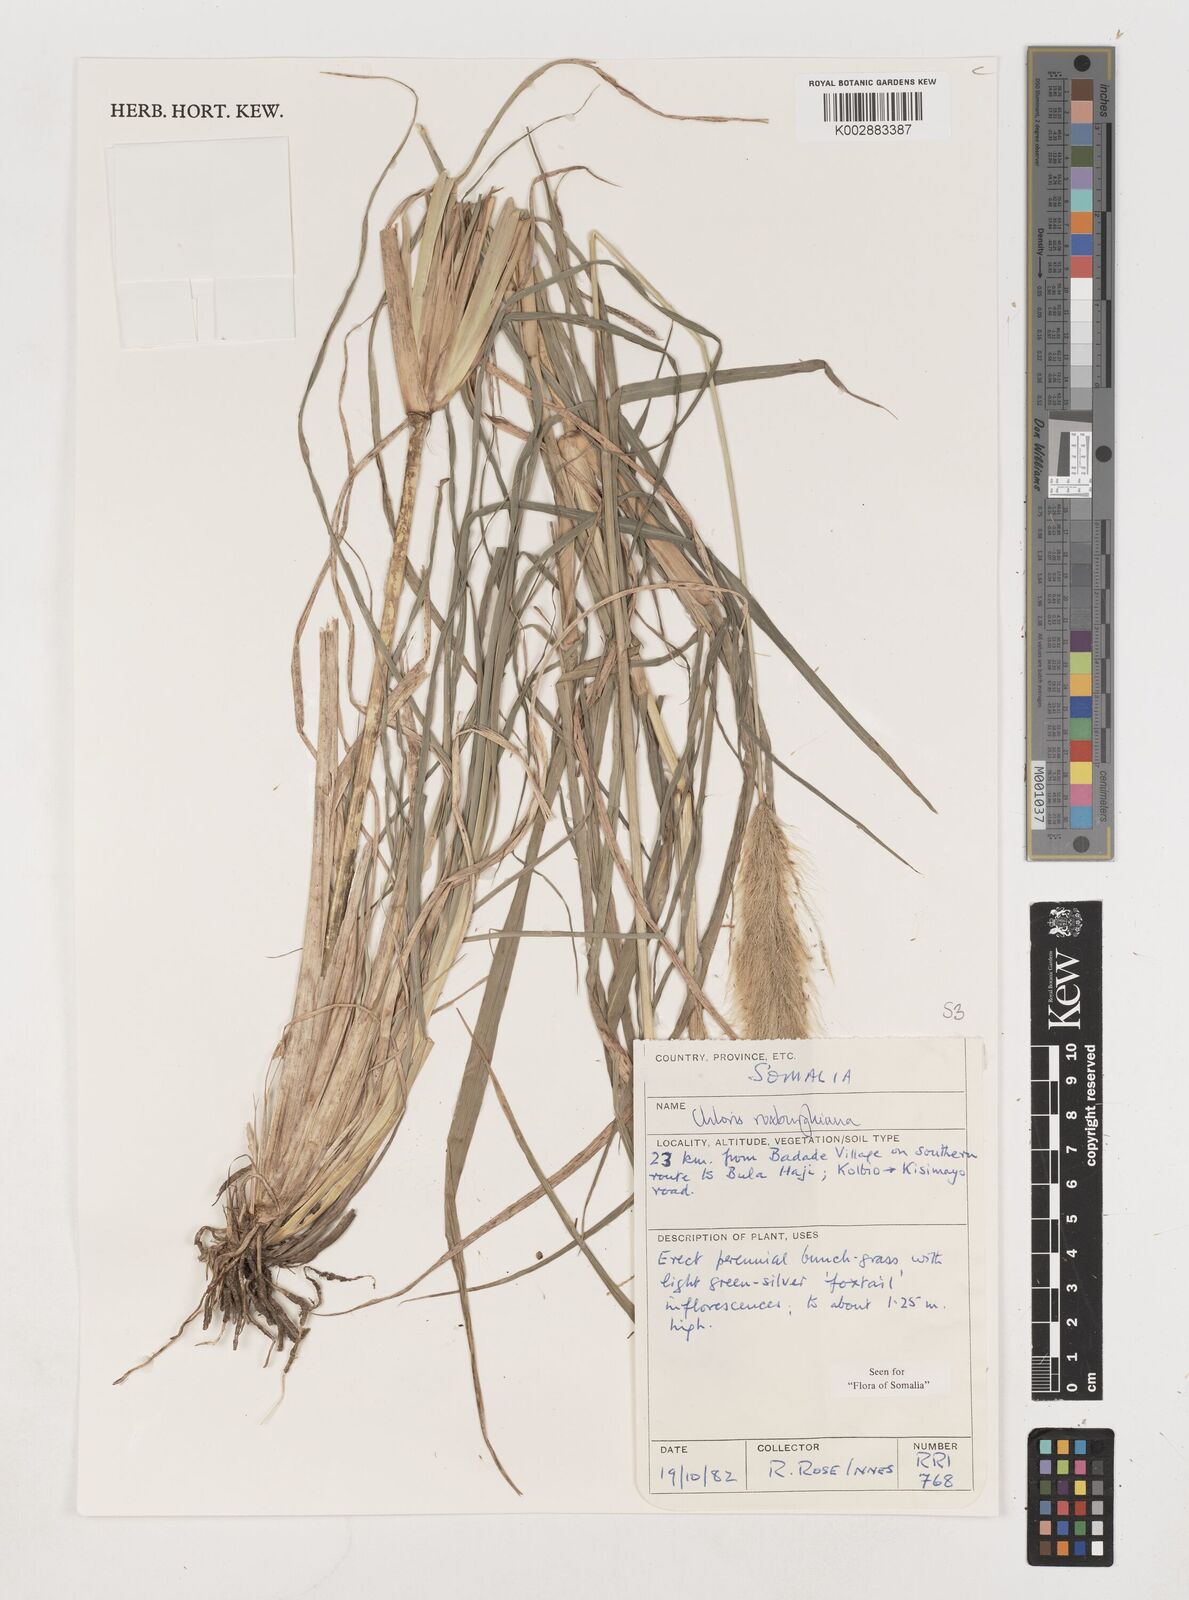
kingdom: Plantae
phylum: Tracheophyta
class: Liliopsida
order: Poales
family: Poaceae
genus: Tetrapogon
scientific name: Tetrapogon roxburghiana
